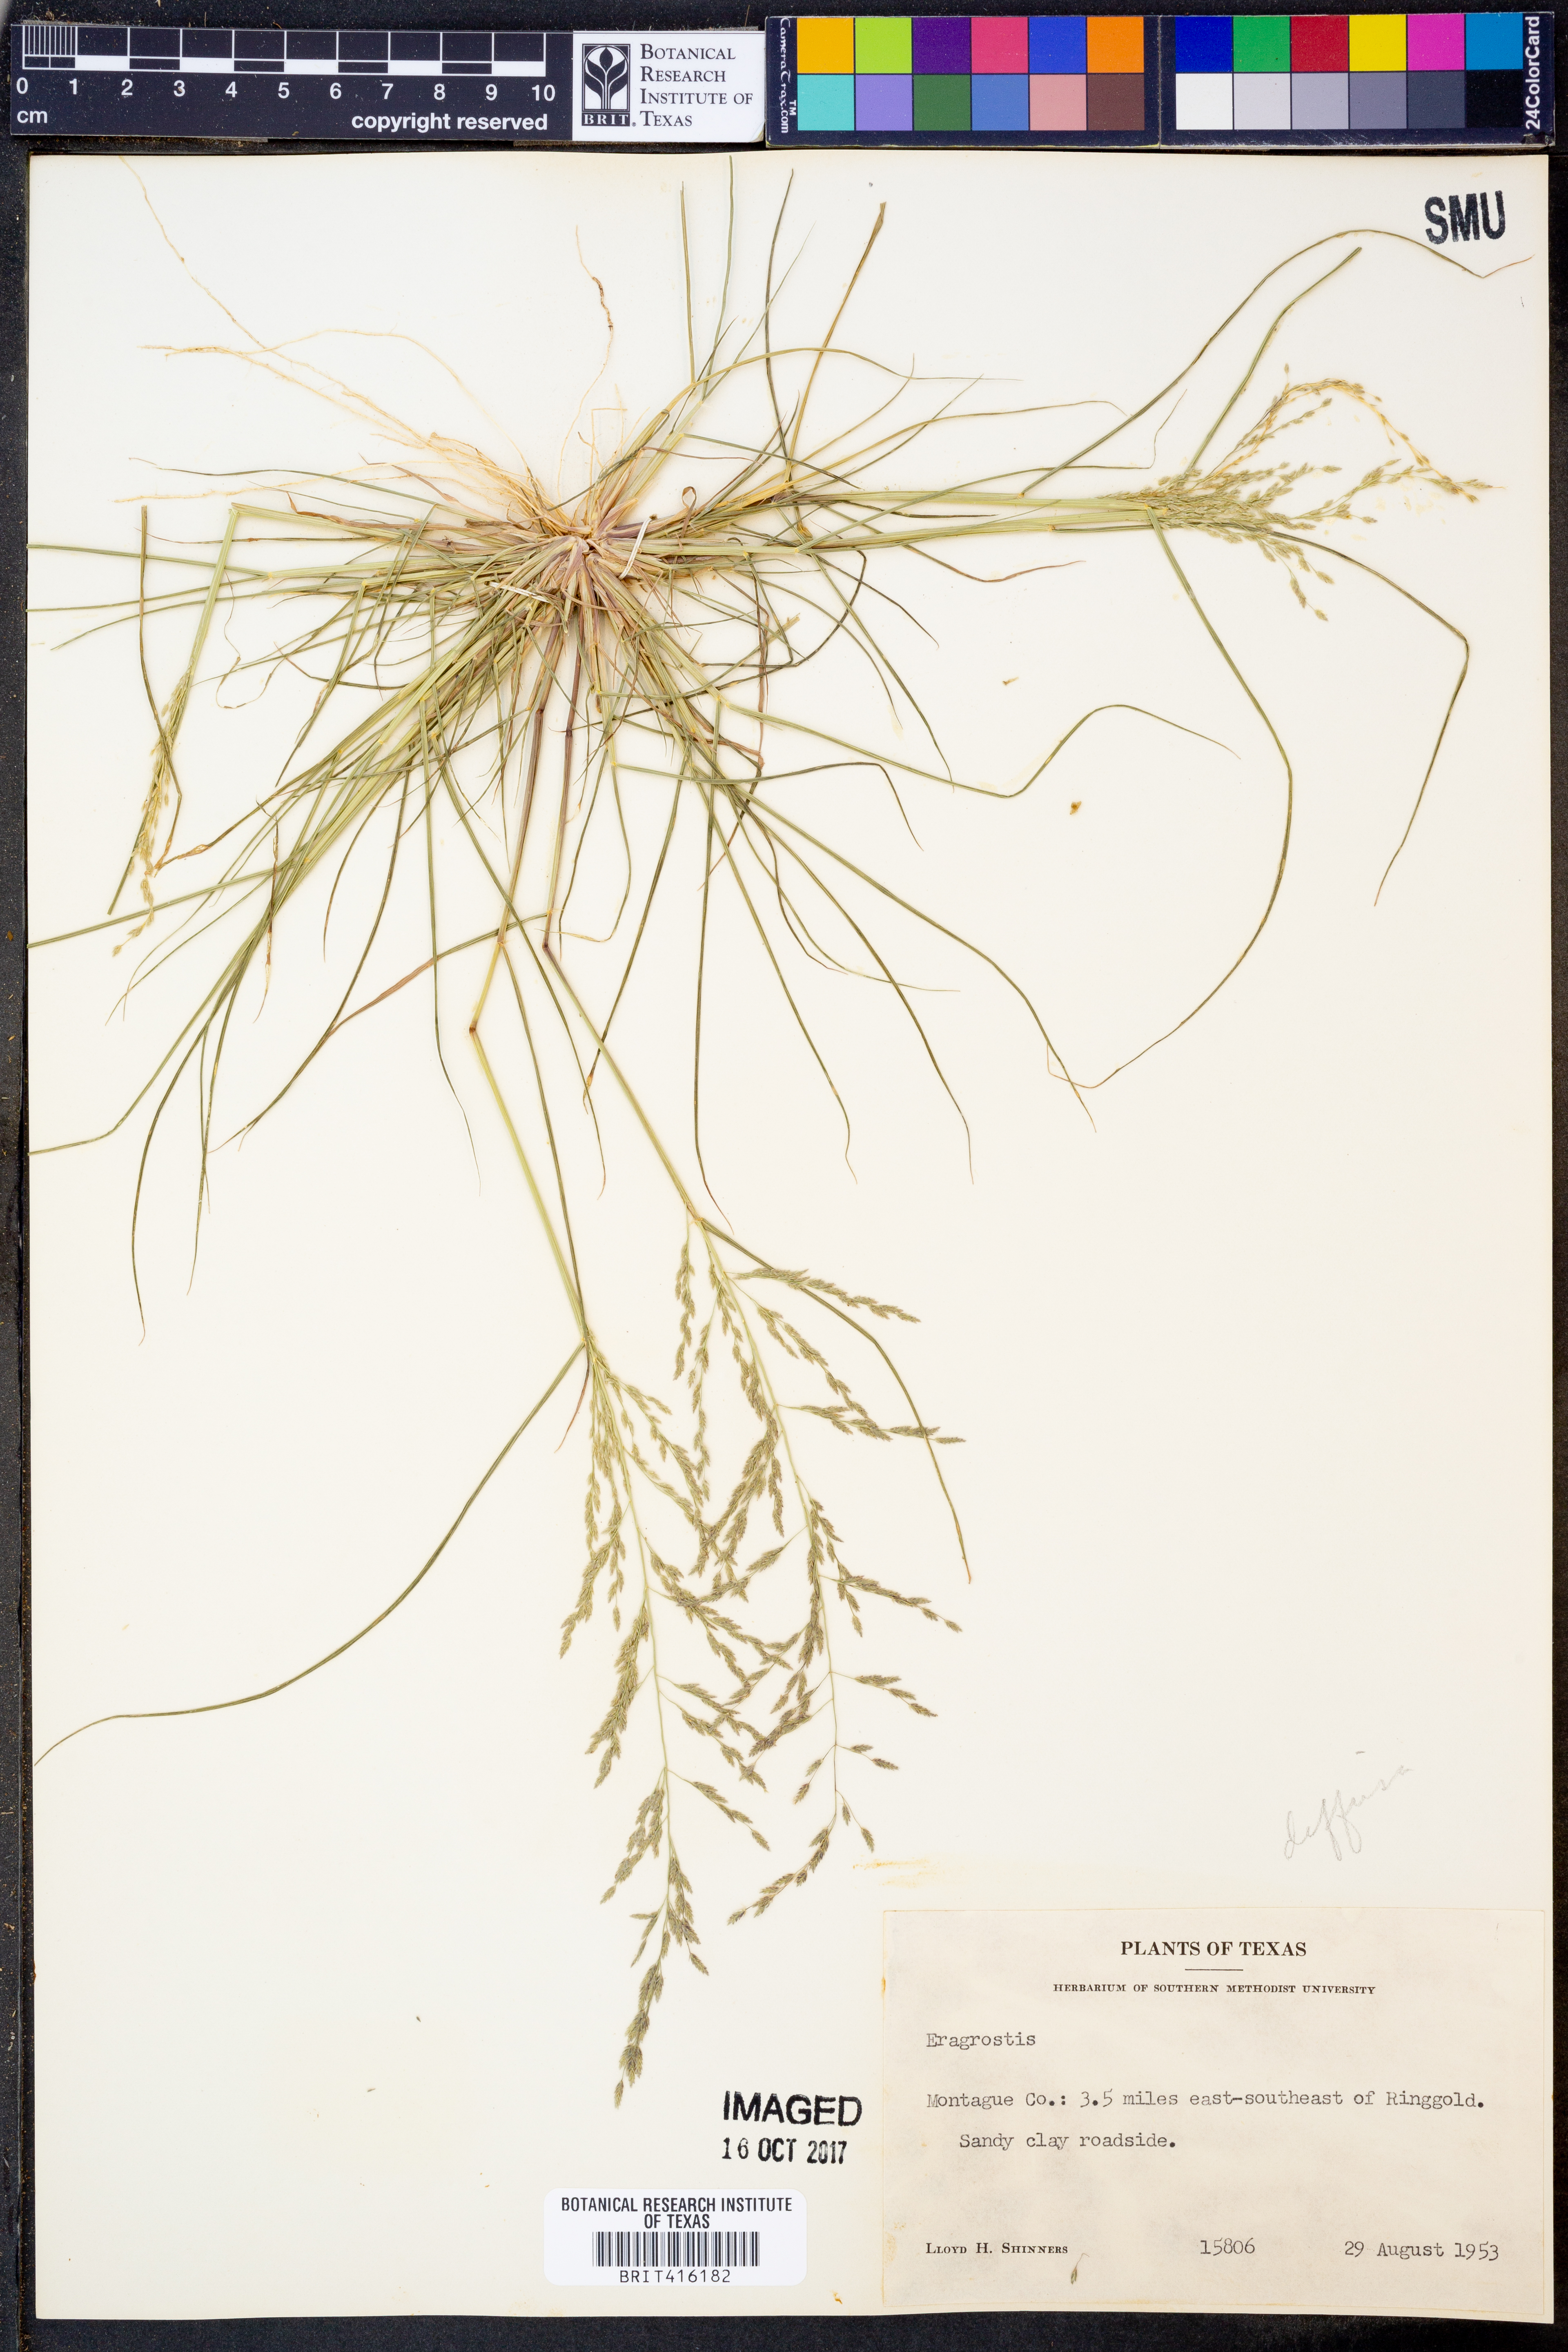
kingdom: Plantae
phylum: Tracheophyta
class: Liliopsida
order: Poales
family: Poaceae
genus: Eragrostis
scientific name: Eragrostis pectinacea
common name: Tufted lovegrass
